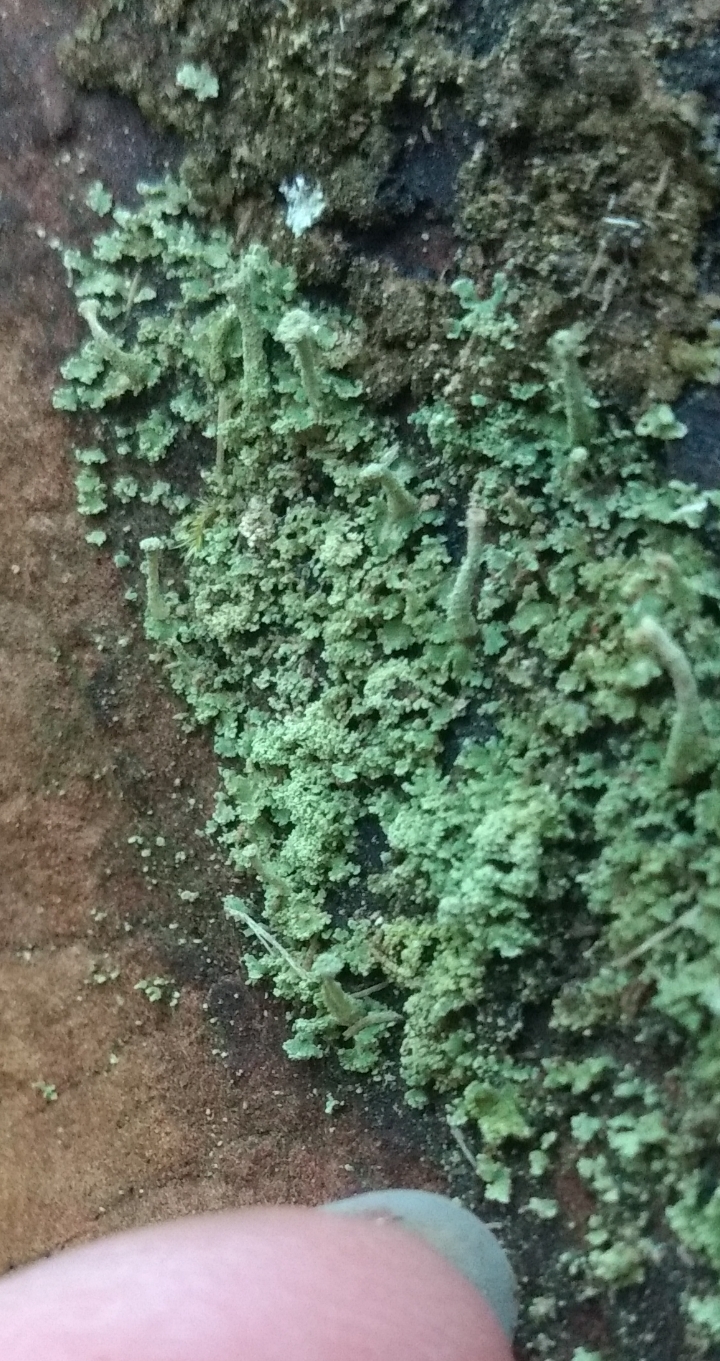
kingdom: Fungi
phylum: Ascomycota
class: Lecanoromycetes
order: Lecanorales
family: Cladoniaceae
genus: Cladonia
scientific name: Cladonia
